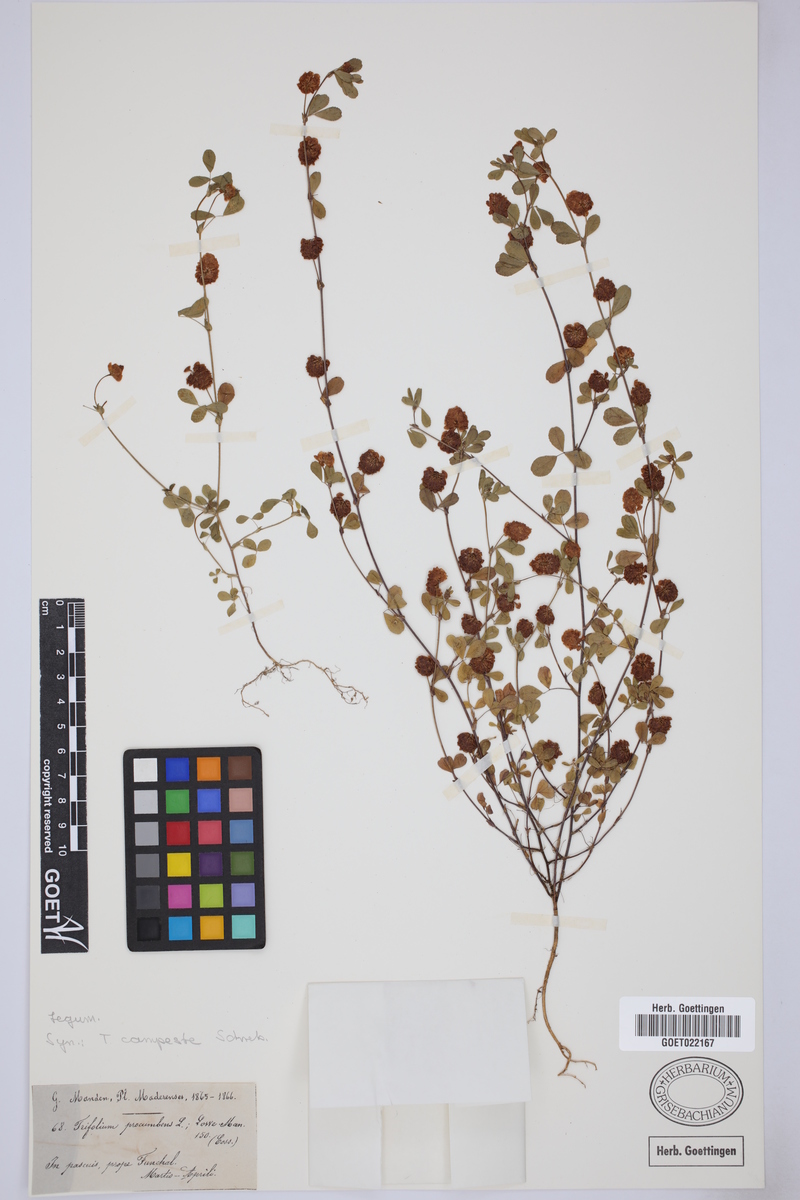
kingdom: Plantae
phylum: Tracheophyta
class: Magnoliopsida
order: Fabales
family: Fabaceae
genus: Trifolium
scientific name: Trifolium campestre
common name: Field clover
